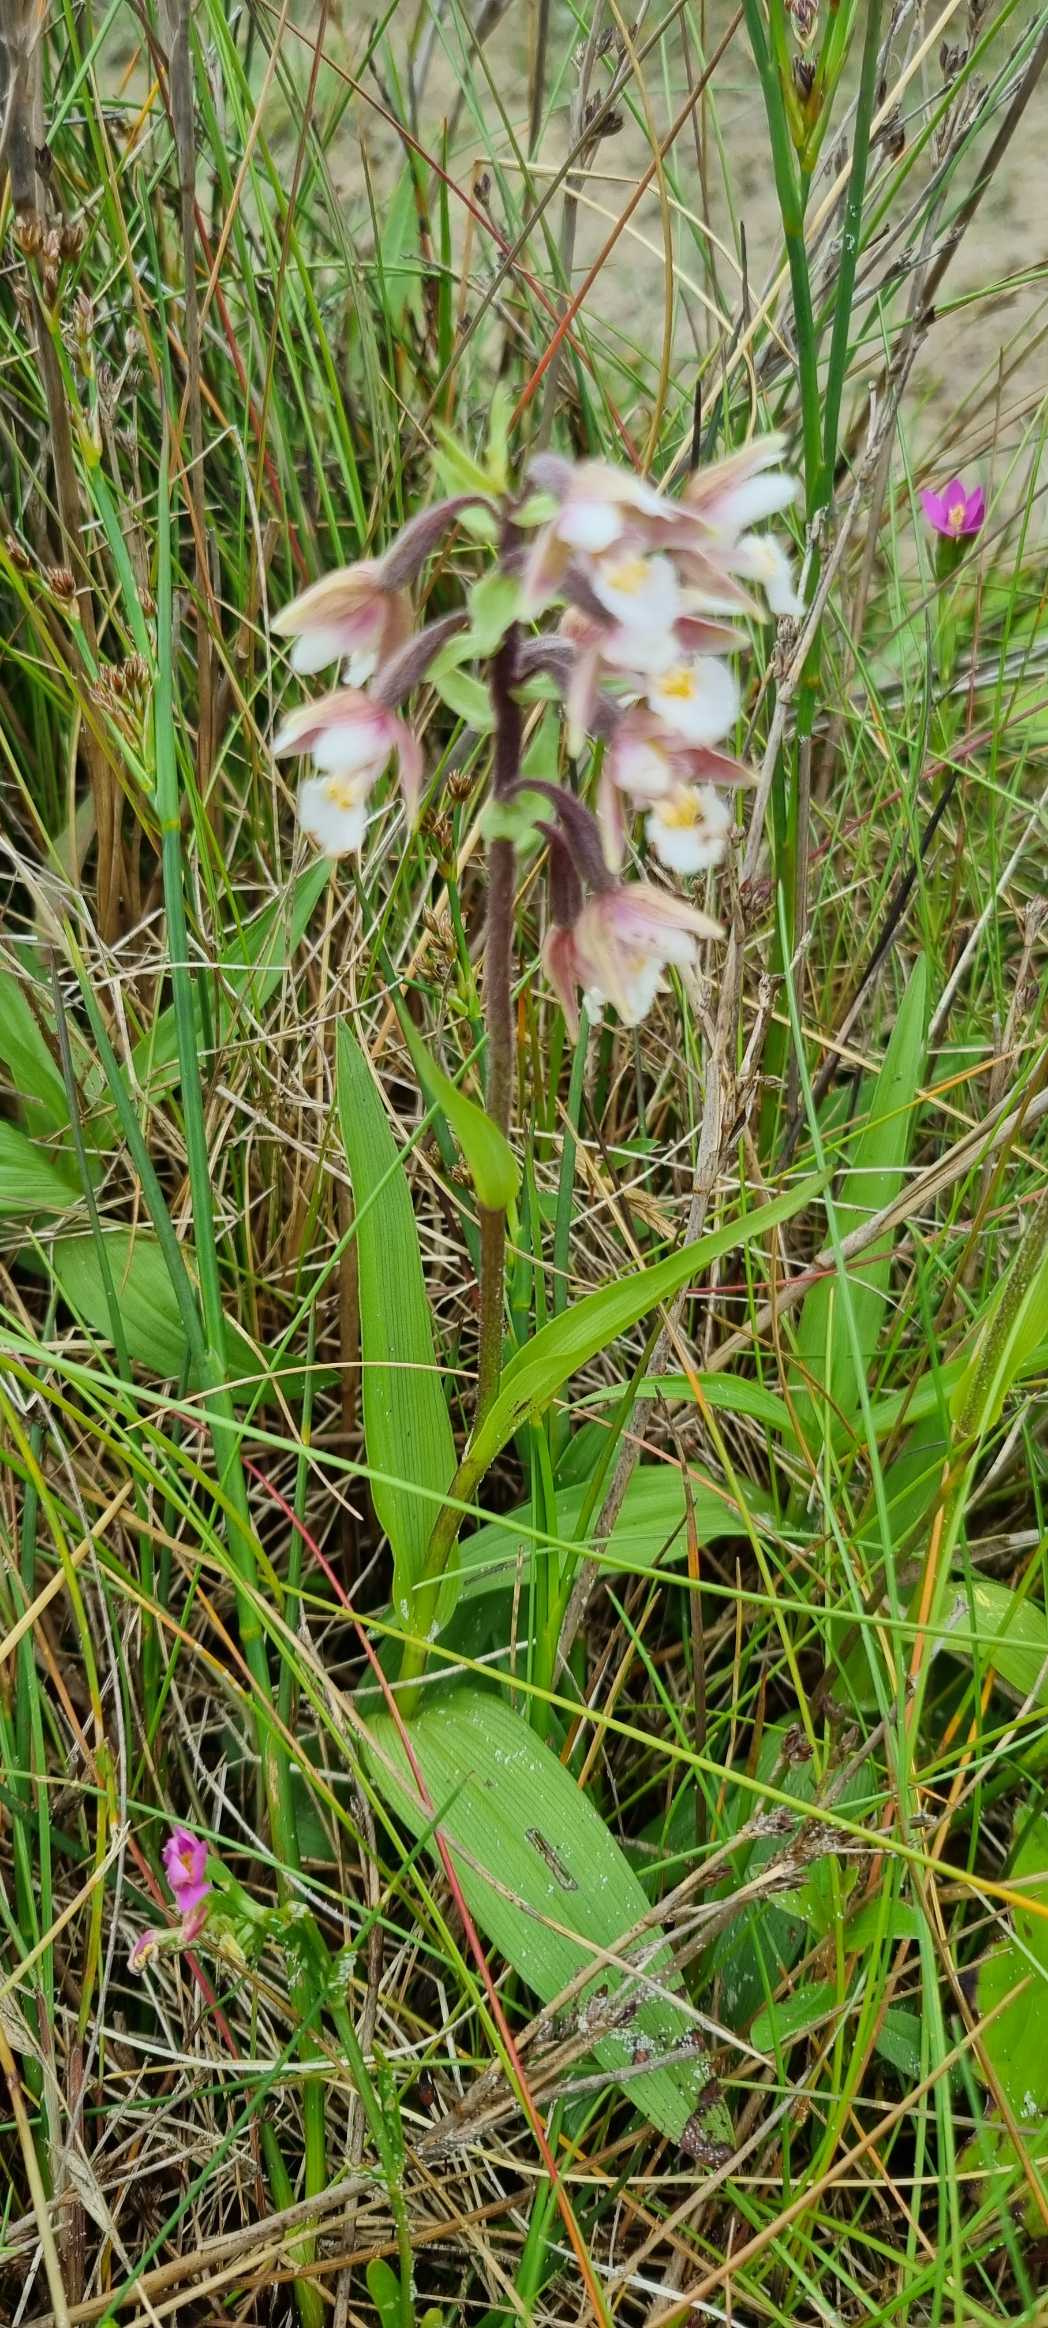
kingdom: Plantae
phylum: Tracheophyta
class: Liliopsida
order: Asparagales
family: Orchidaceae
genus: Epipactis
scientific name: Epipactis palustris
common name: Sump-hullæbe
